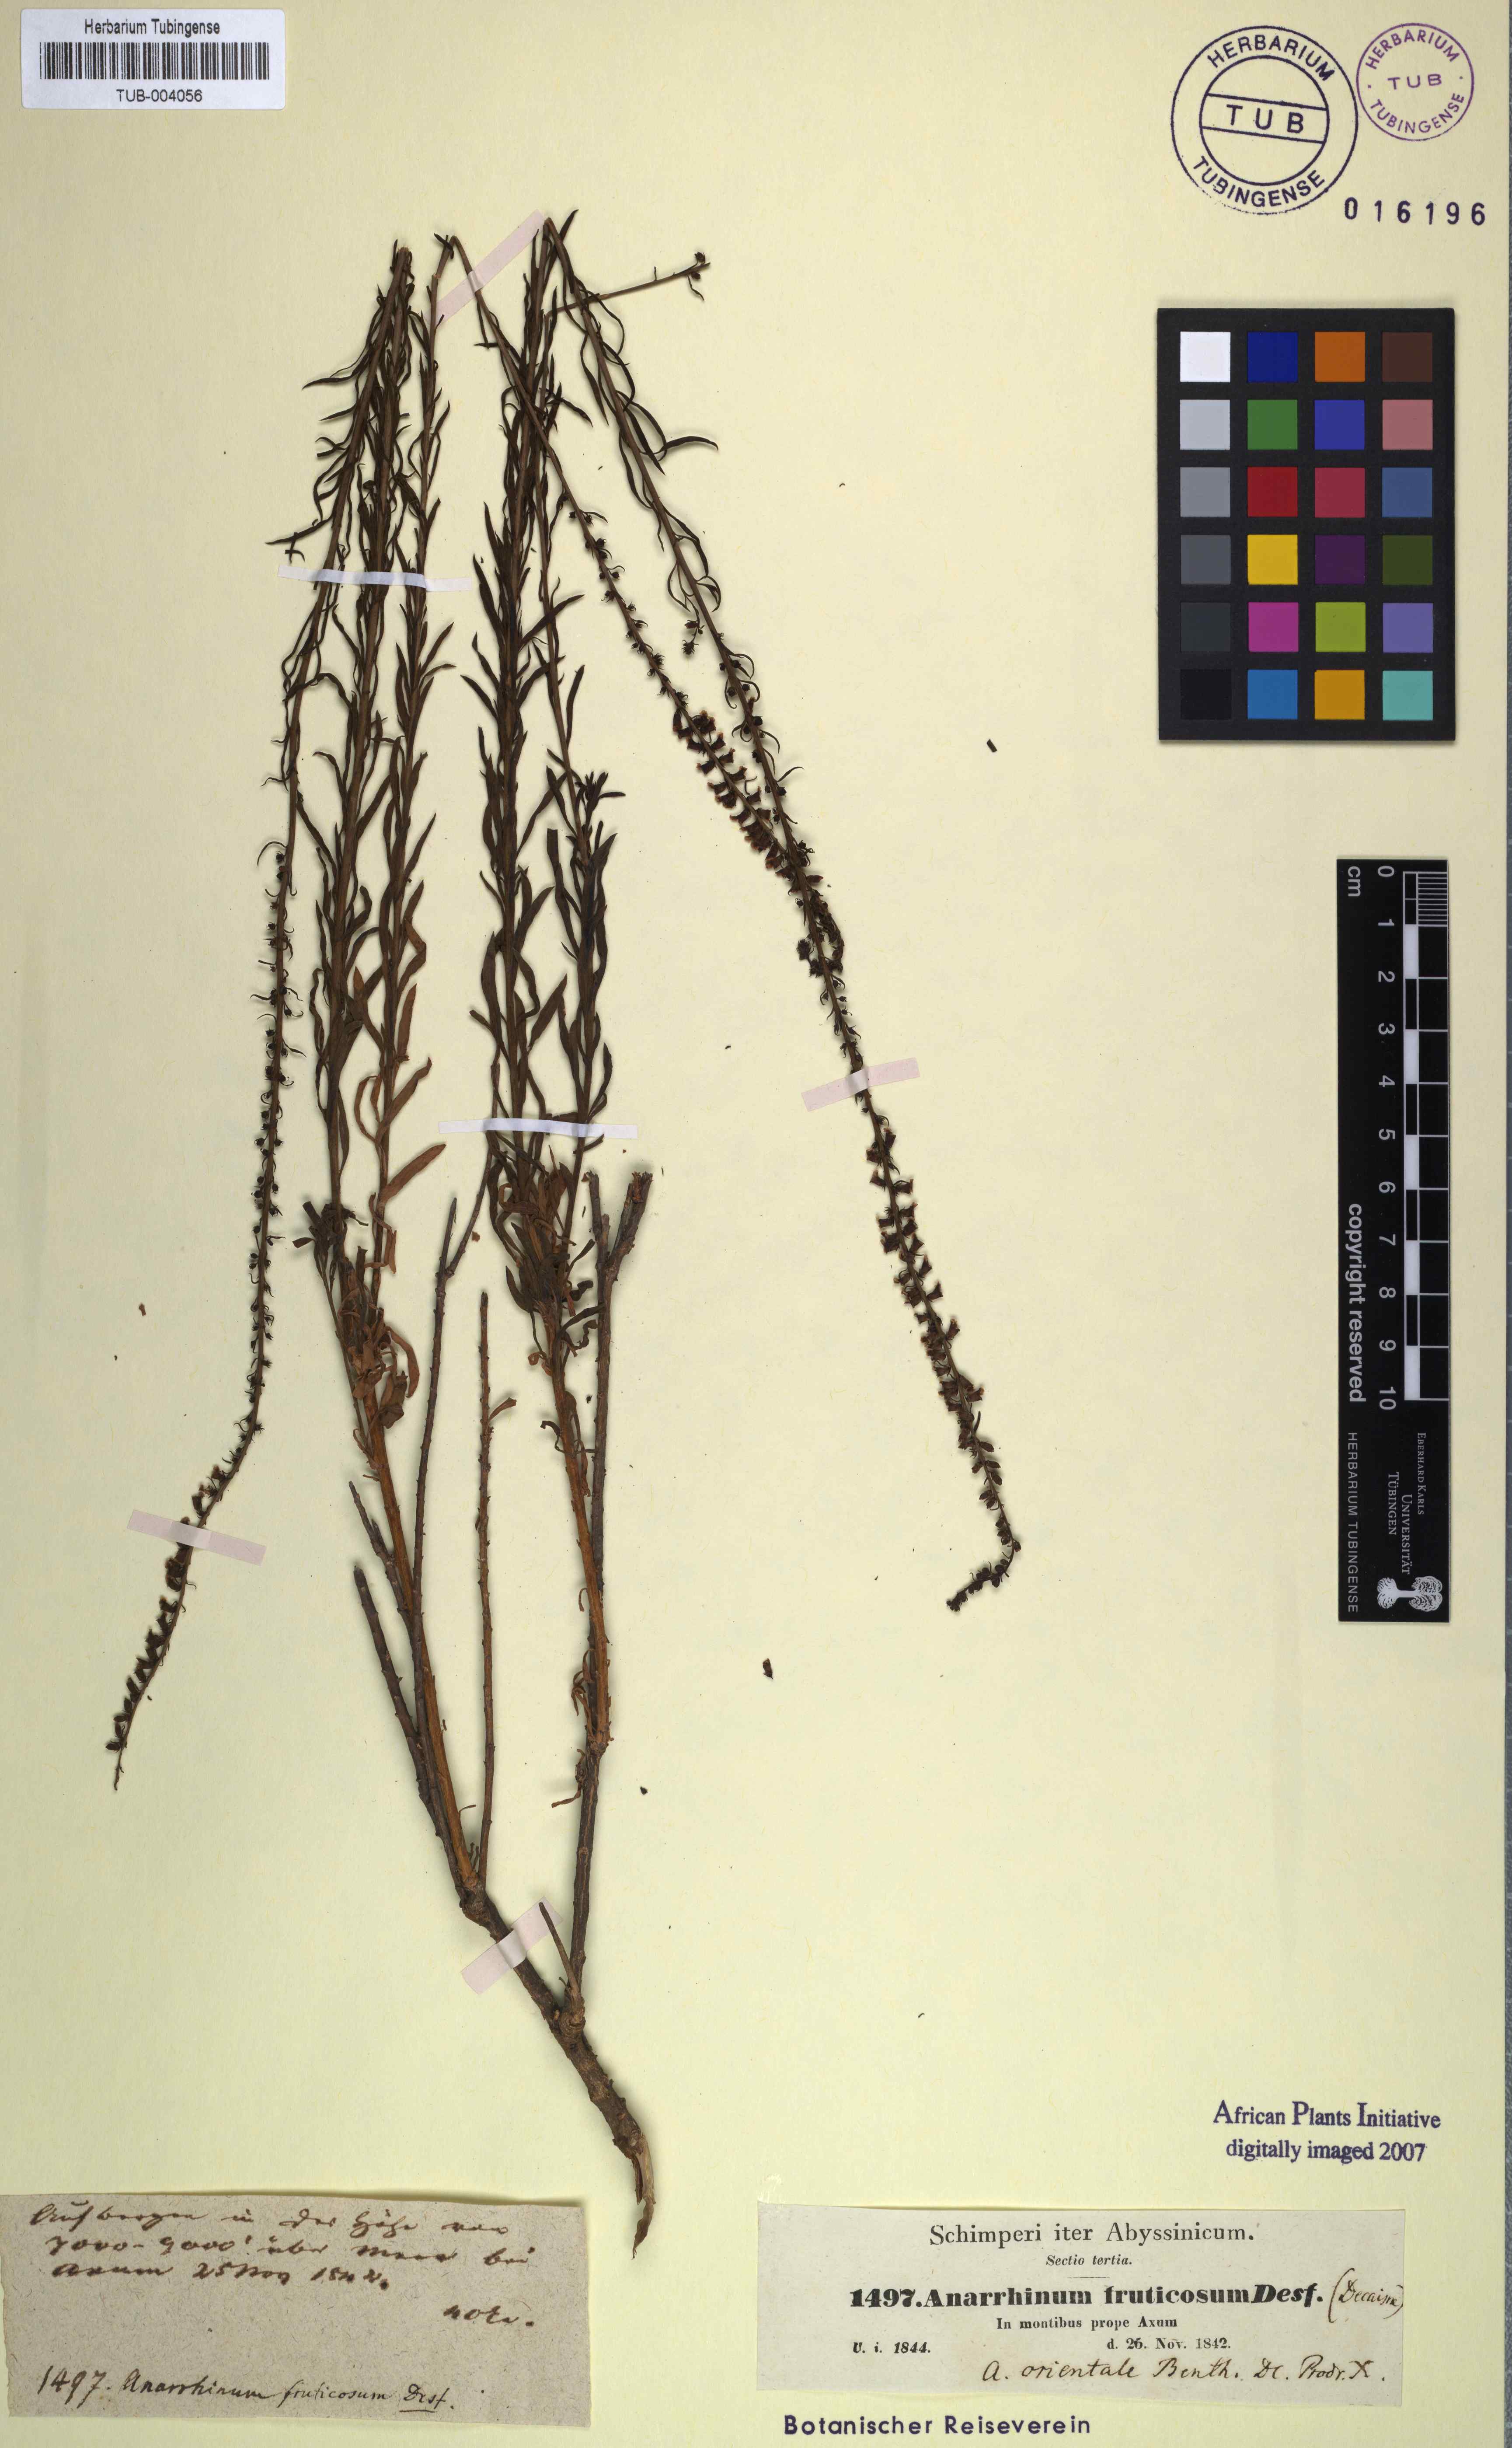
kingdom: Plantae
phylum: Tracheophyta
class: Magnoliopsida
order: Lamiales
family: Plantaginaceae
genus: Anarrhinum
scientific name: Anarrhinum forskaohlii
